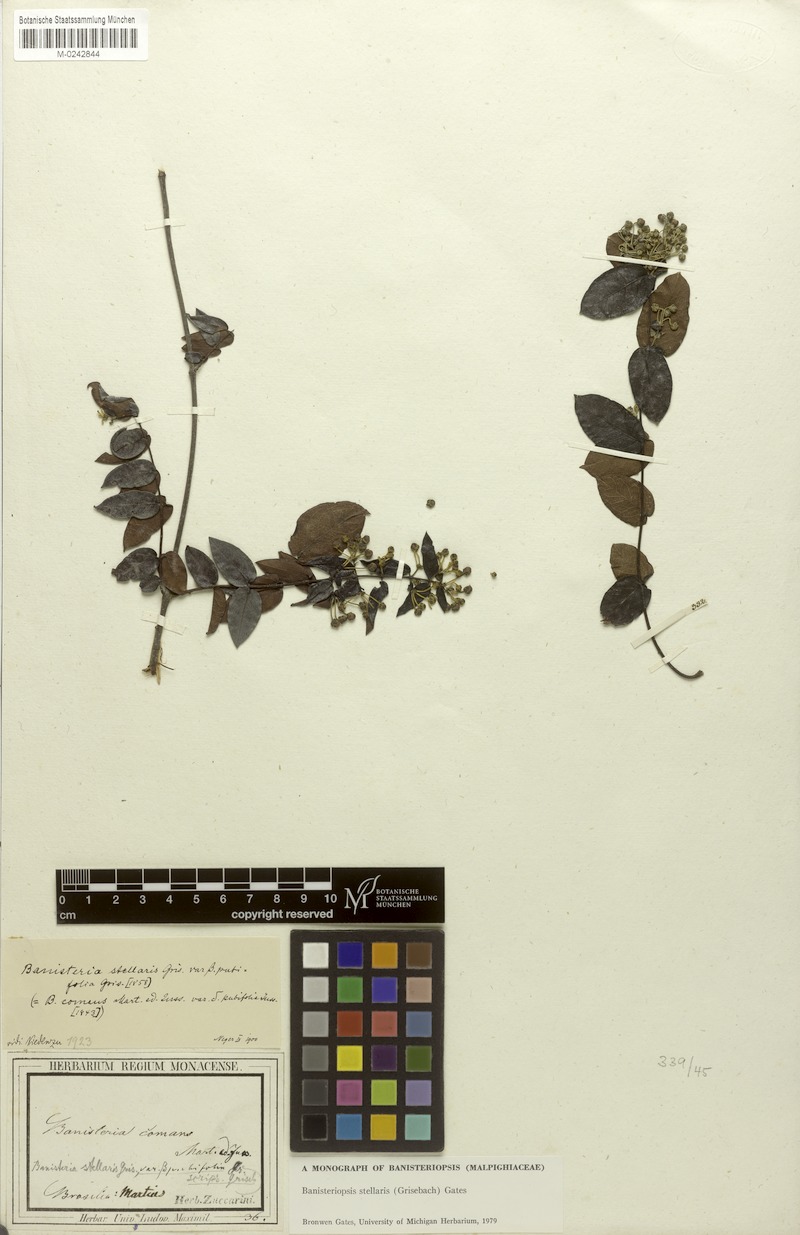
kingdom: Plantae
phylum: Tracheophyta
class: Magnoliopsida
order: Malpighiales
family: Malpighiaceae
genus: Banisteriopsis
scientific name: Banisteriopsis stellaris
